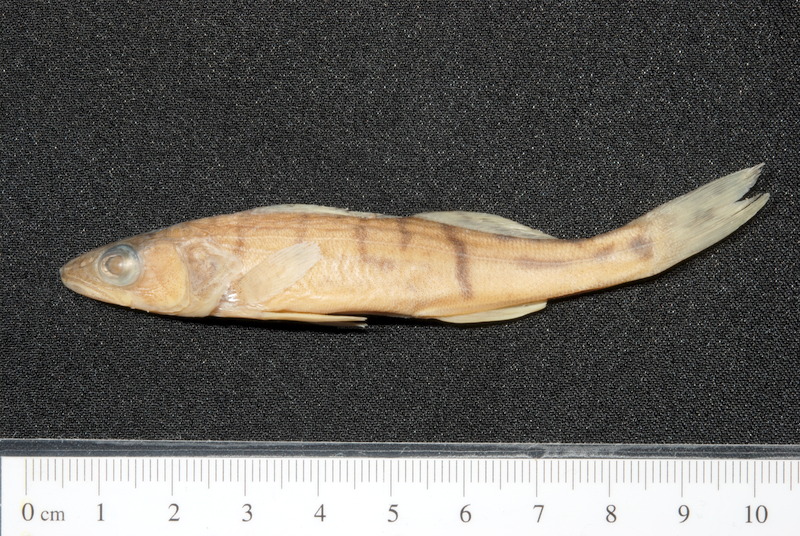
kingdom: Animalia
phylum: Chordata
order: Perciformes
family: Percidae
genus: Sander
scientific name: Sander lucioperca
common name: Pikeperch
